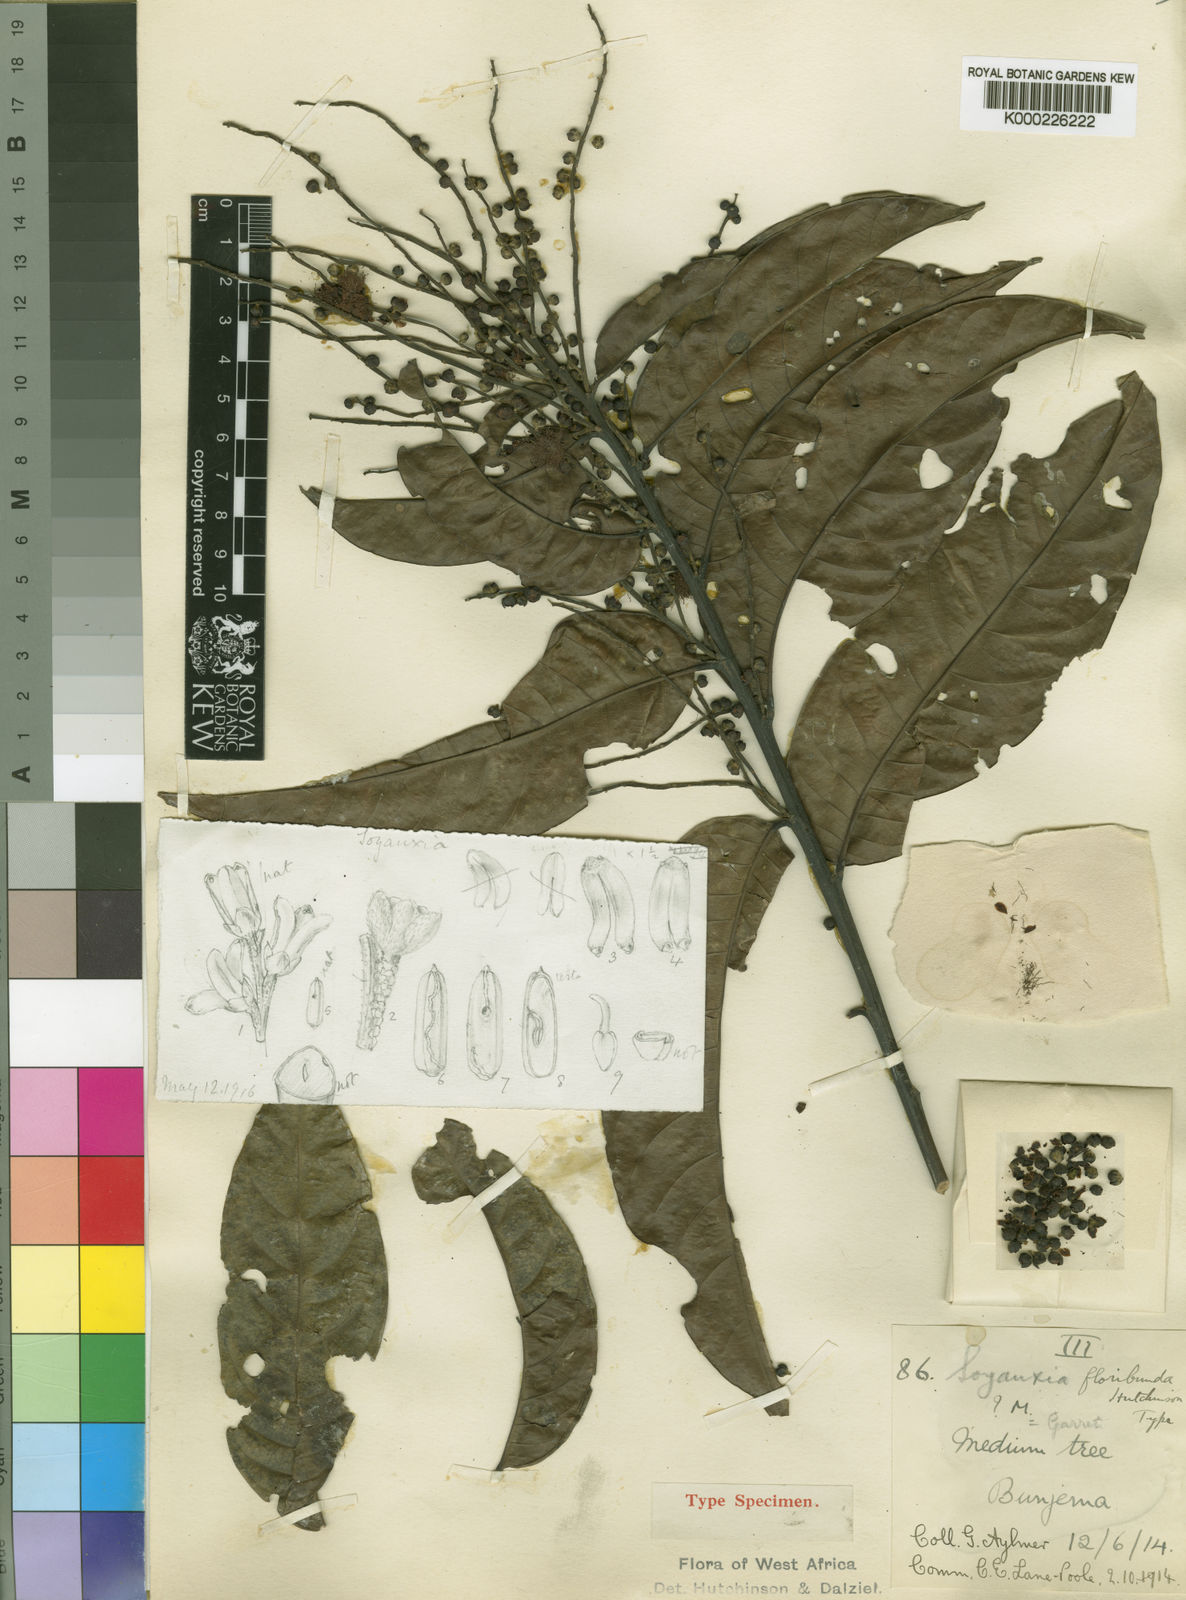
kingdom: Plantae
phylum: Tracheophyta
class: Magnoliopsida
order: Saxifragales
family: Peridiscaceae
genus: Soyauxia
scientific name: Soyauxia floribunda
